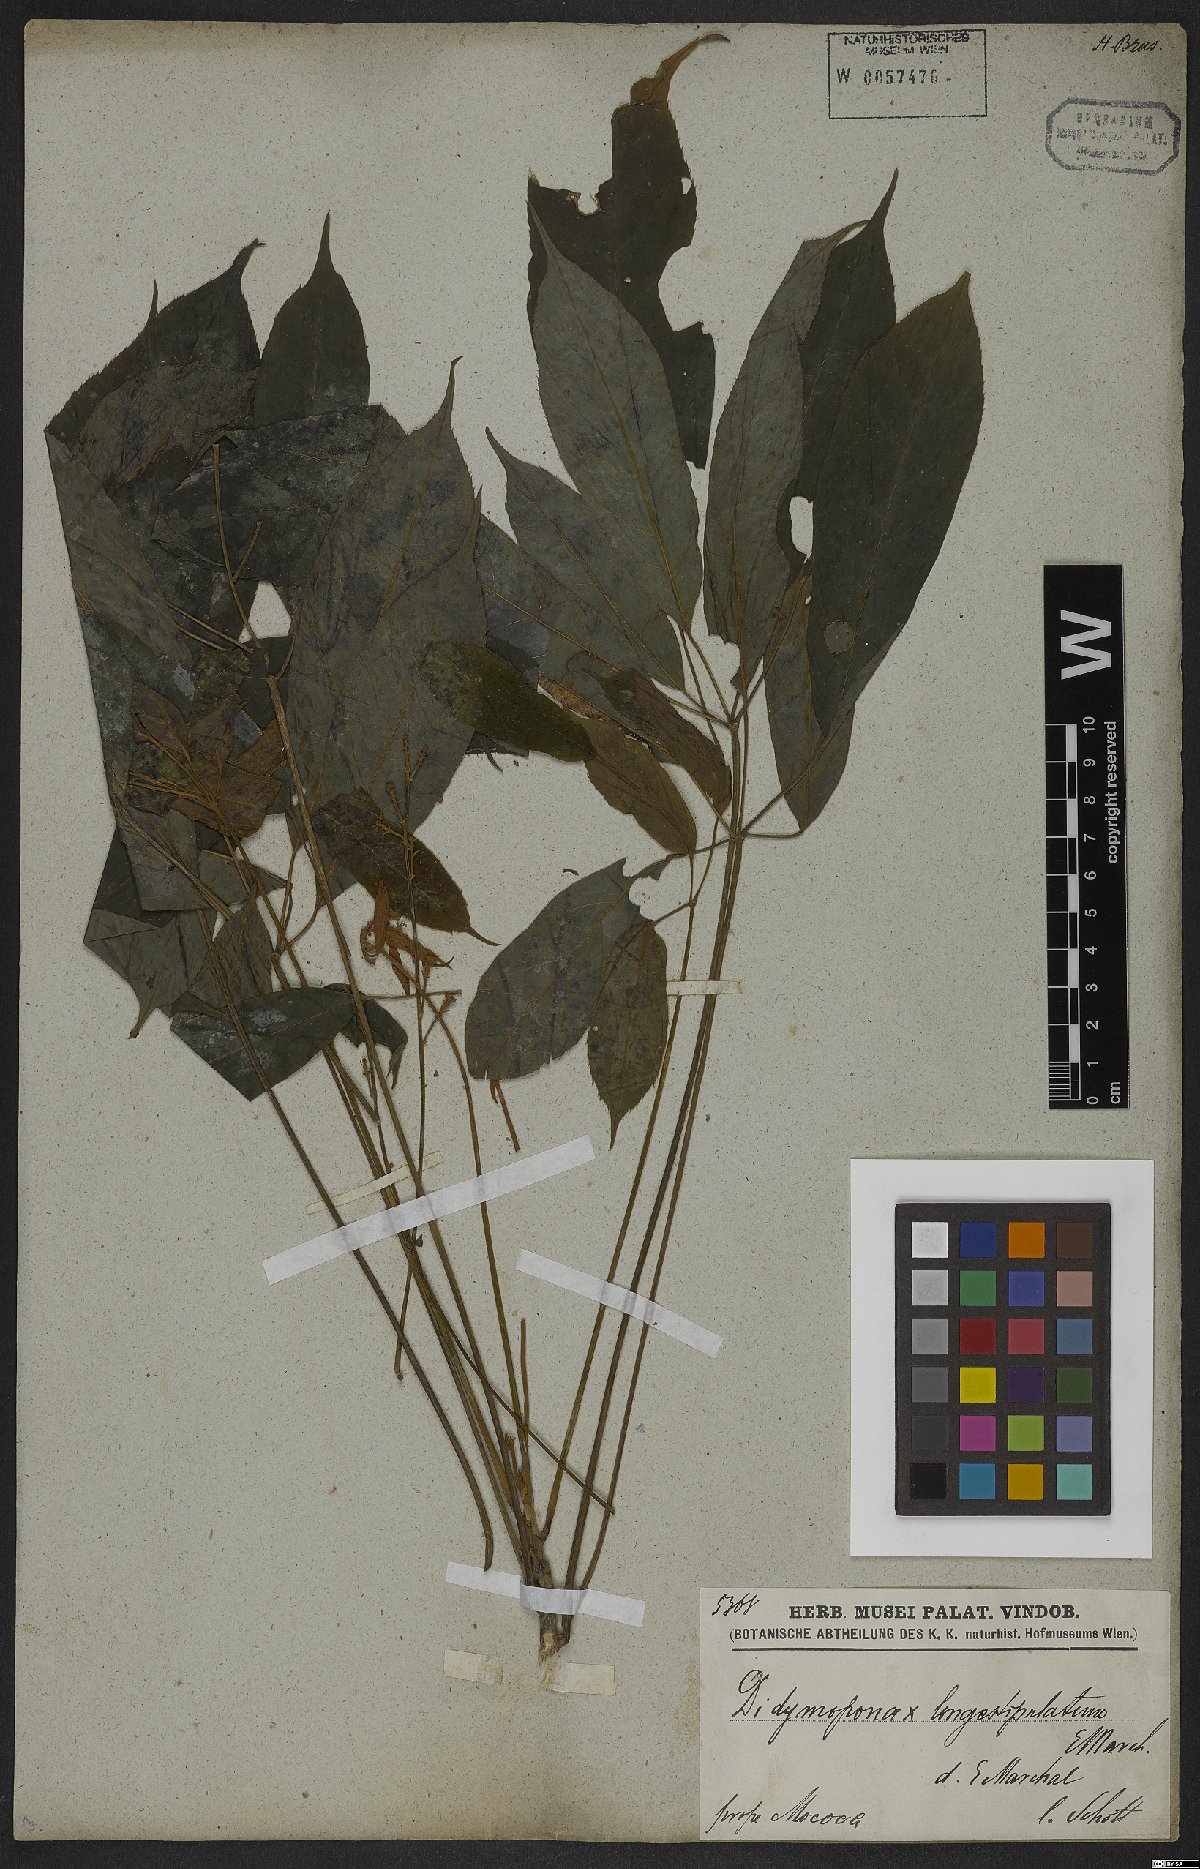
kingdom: Plantae
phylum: Tracheophyta
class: Magnoliopsida
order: Apiales
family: Araliaceae
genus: Didymopanax
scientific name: Didymopanax longepetiolatus
